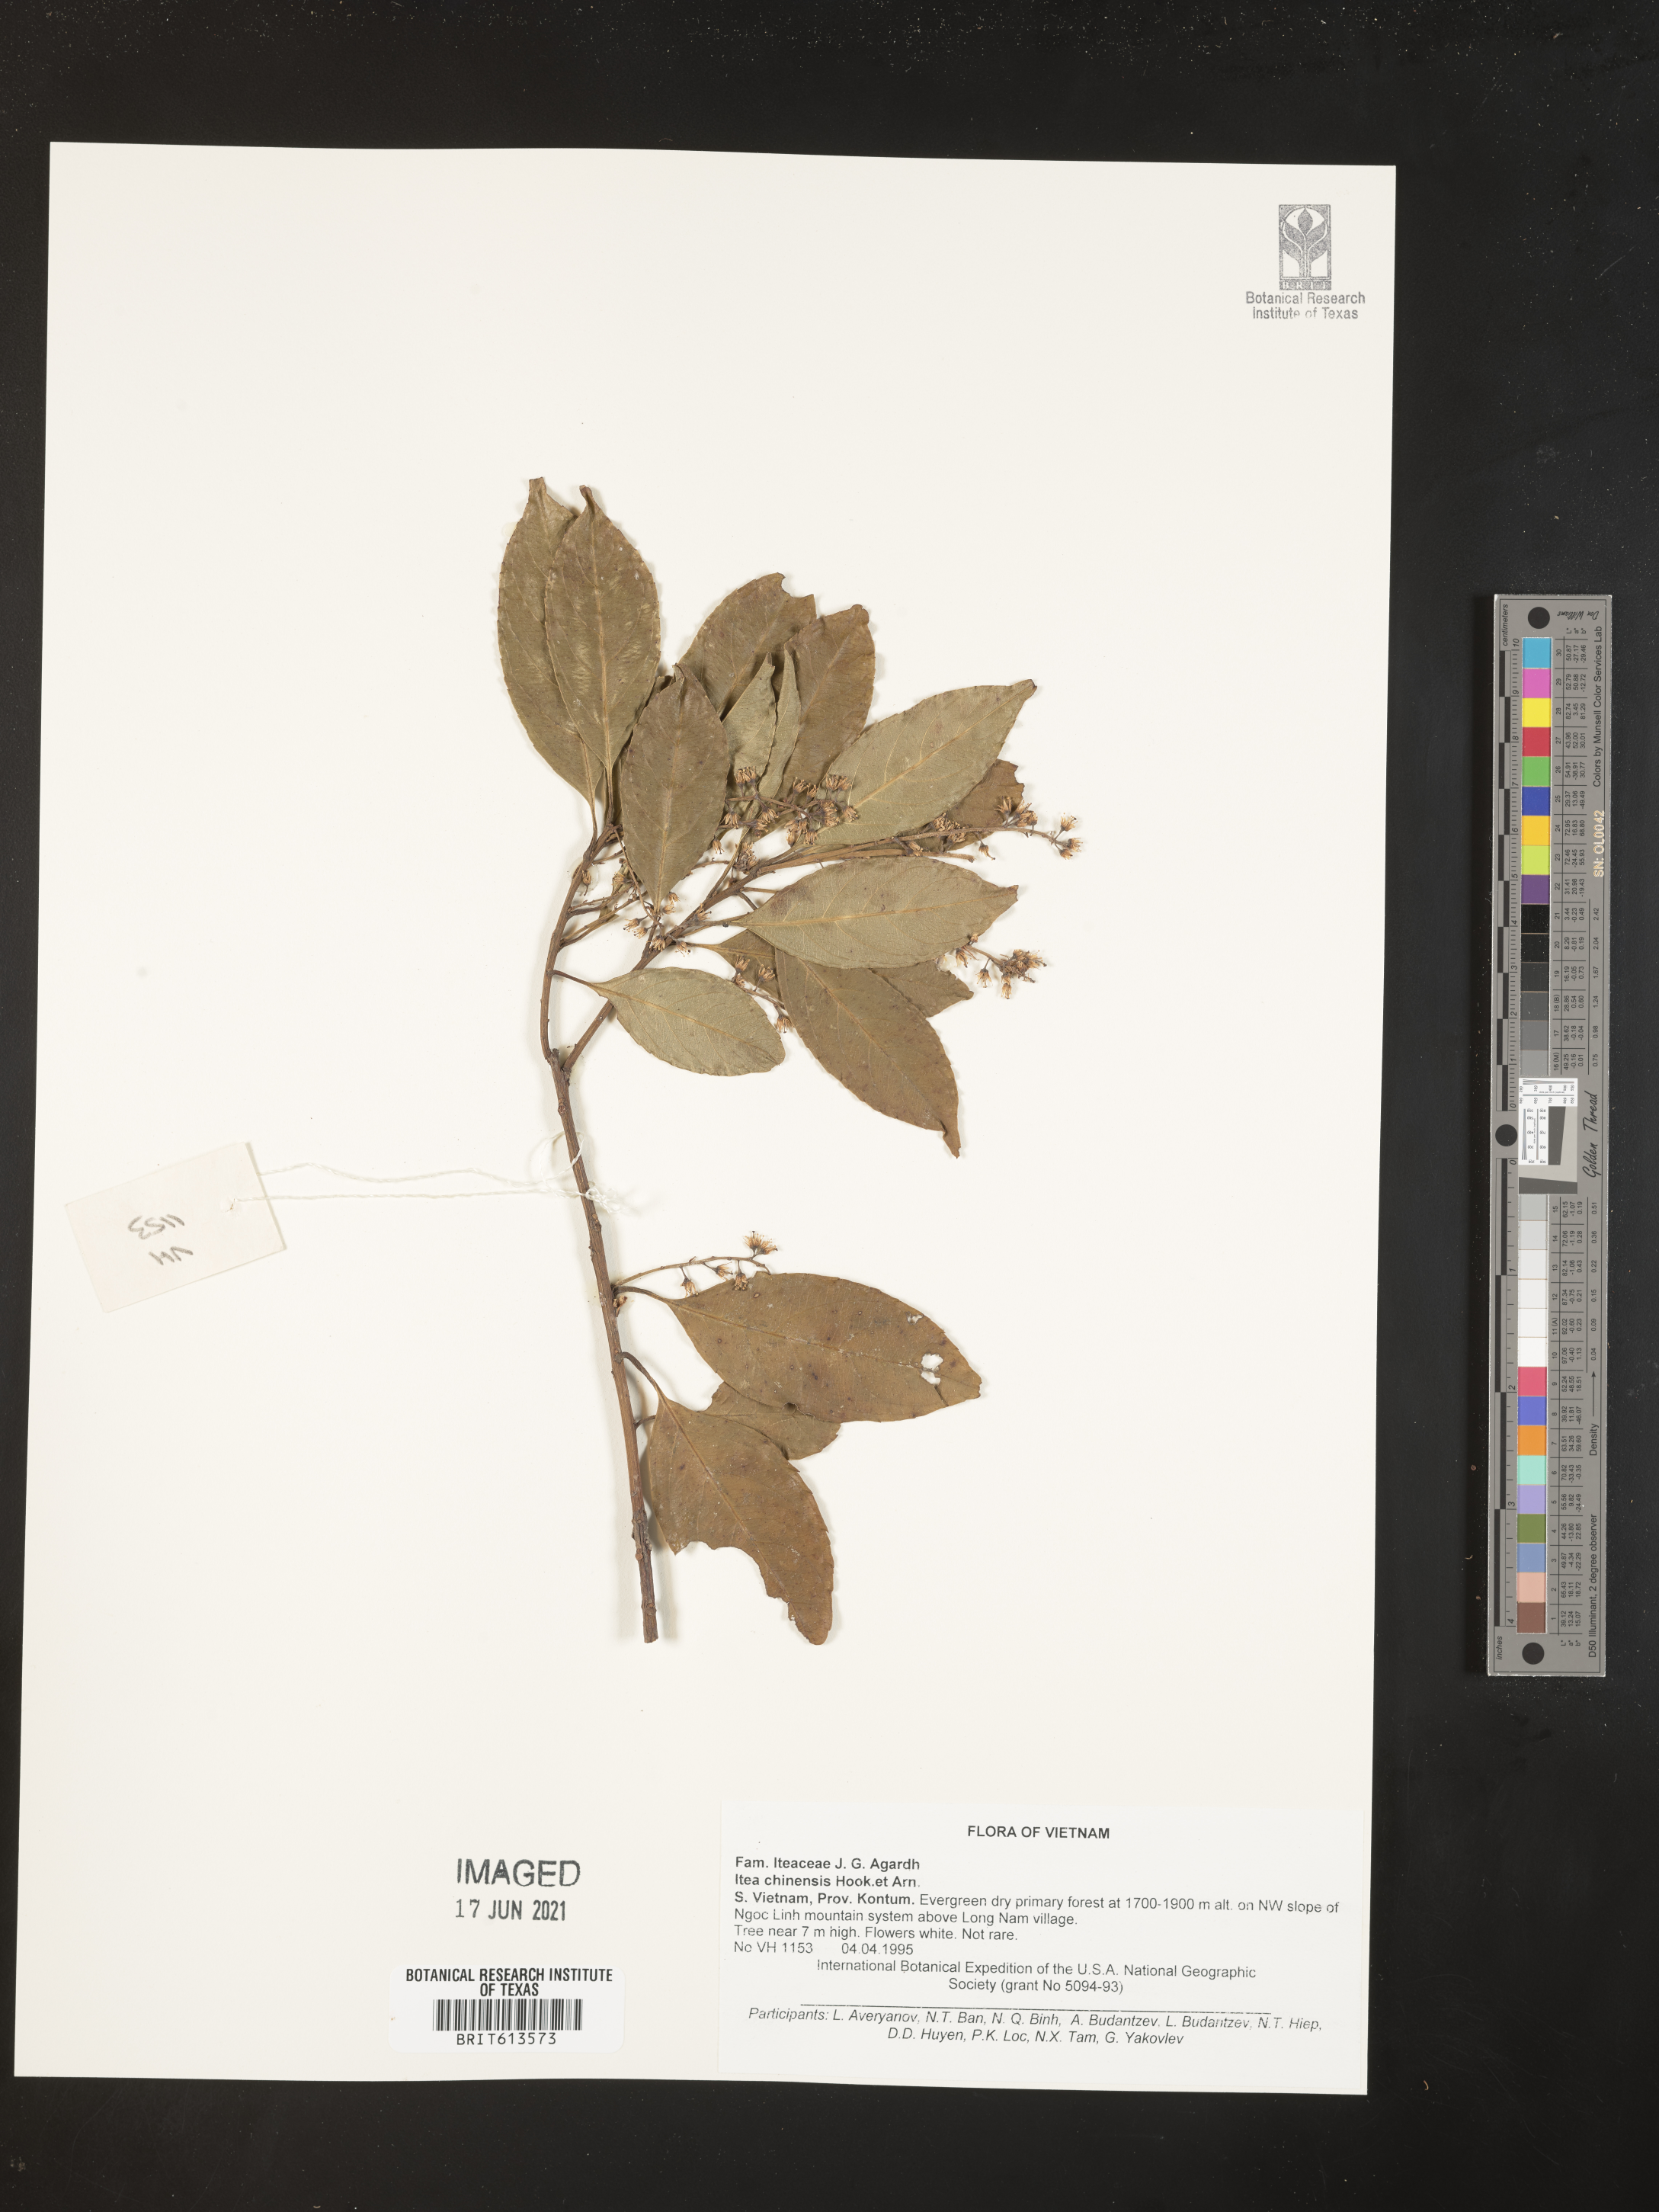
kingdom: Plantae
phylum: Tracheophyta
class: Magnoliopsida
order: Saxifragales
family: Iteaceae
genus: Itea
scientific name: Itea chinensis
